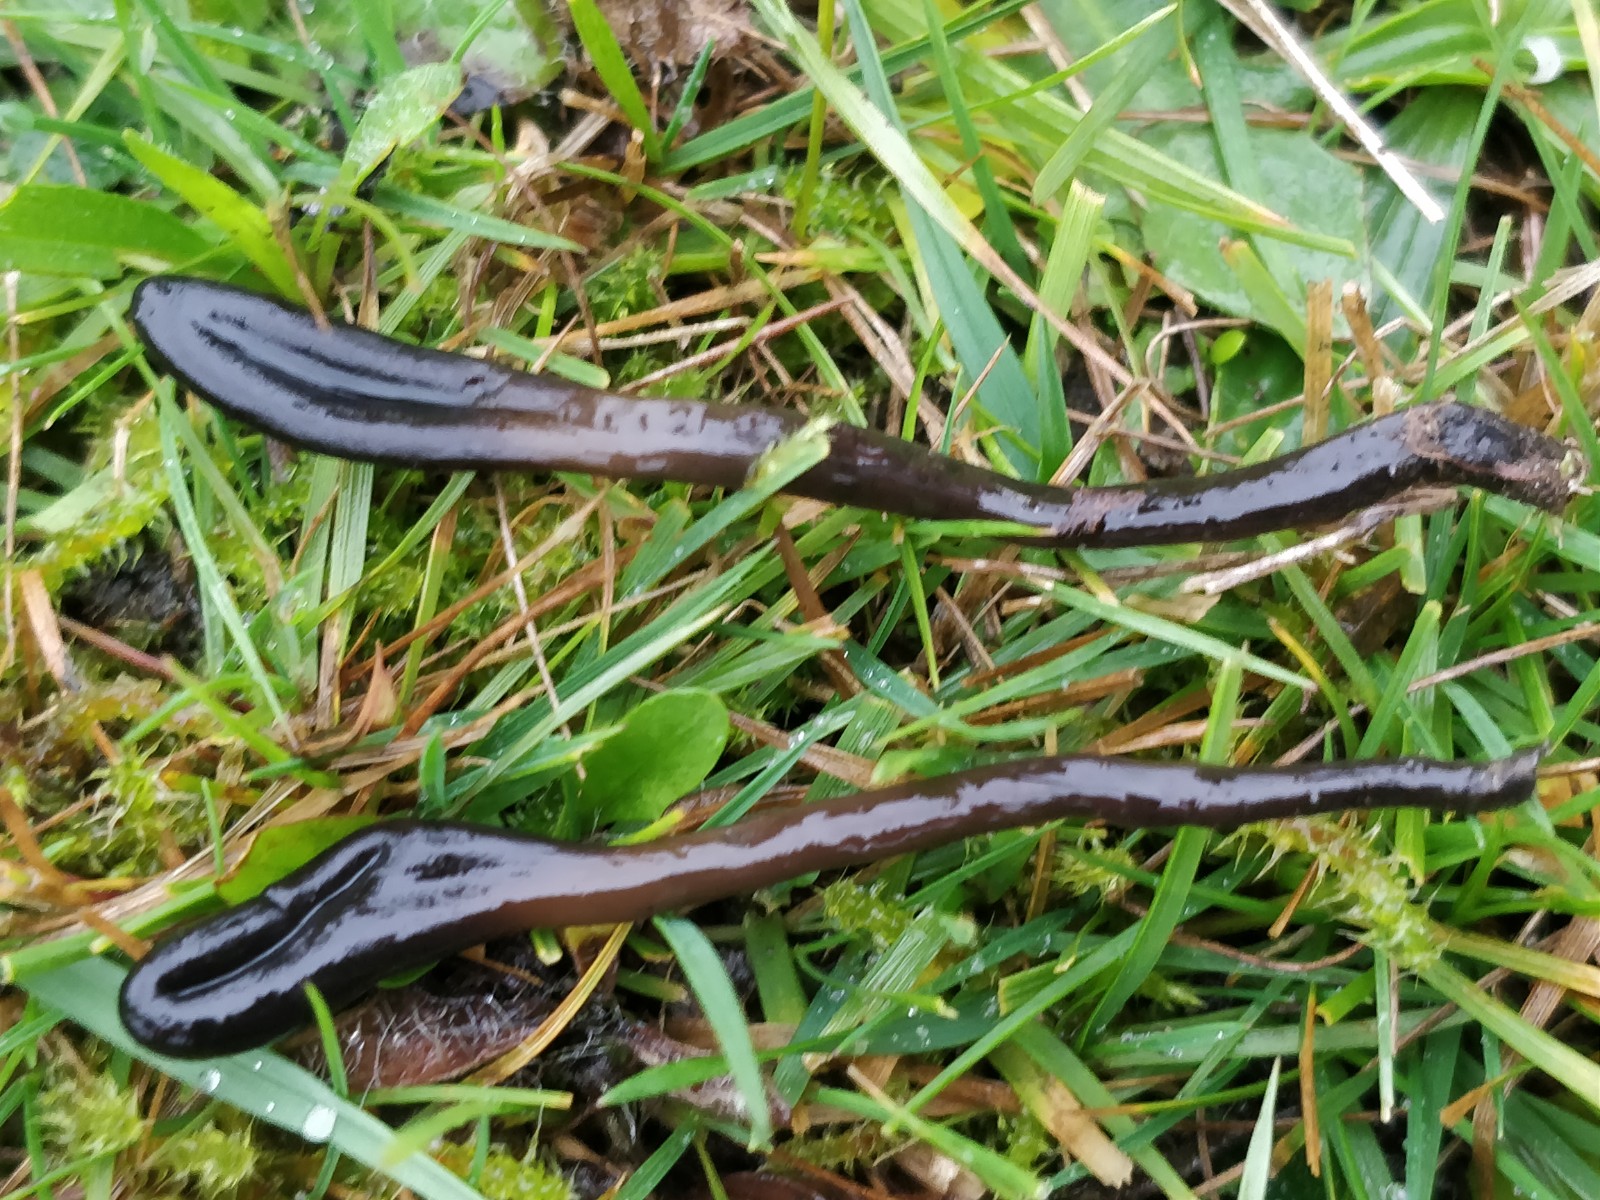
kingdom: Fungi
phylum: Ascomycota
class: Geoglossomycetes
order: Geoglossales
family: Geoglossaceae
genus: Glutinoglossum
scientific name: Glutinoglossum glutinosum
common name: slimet jordtunge
